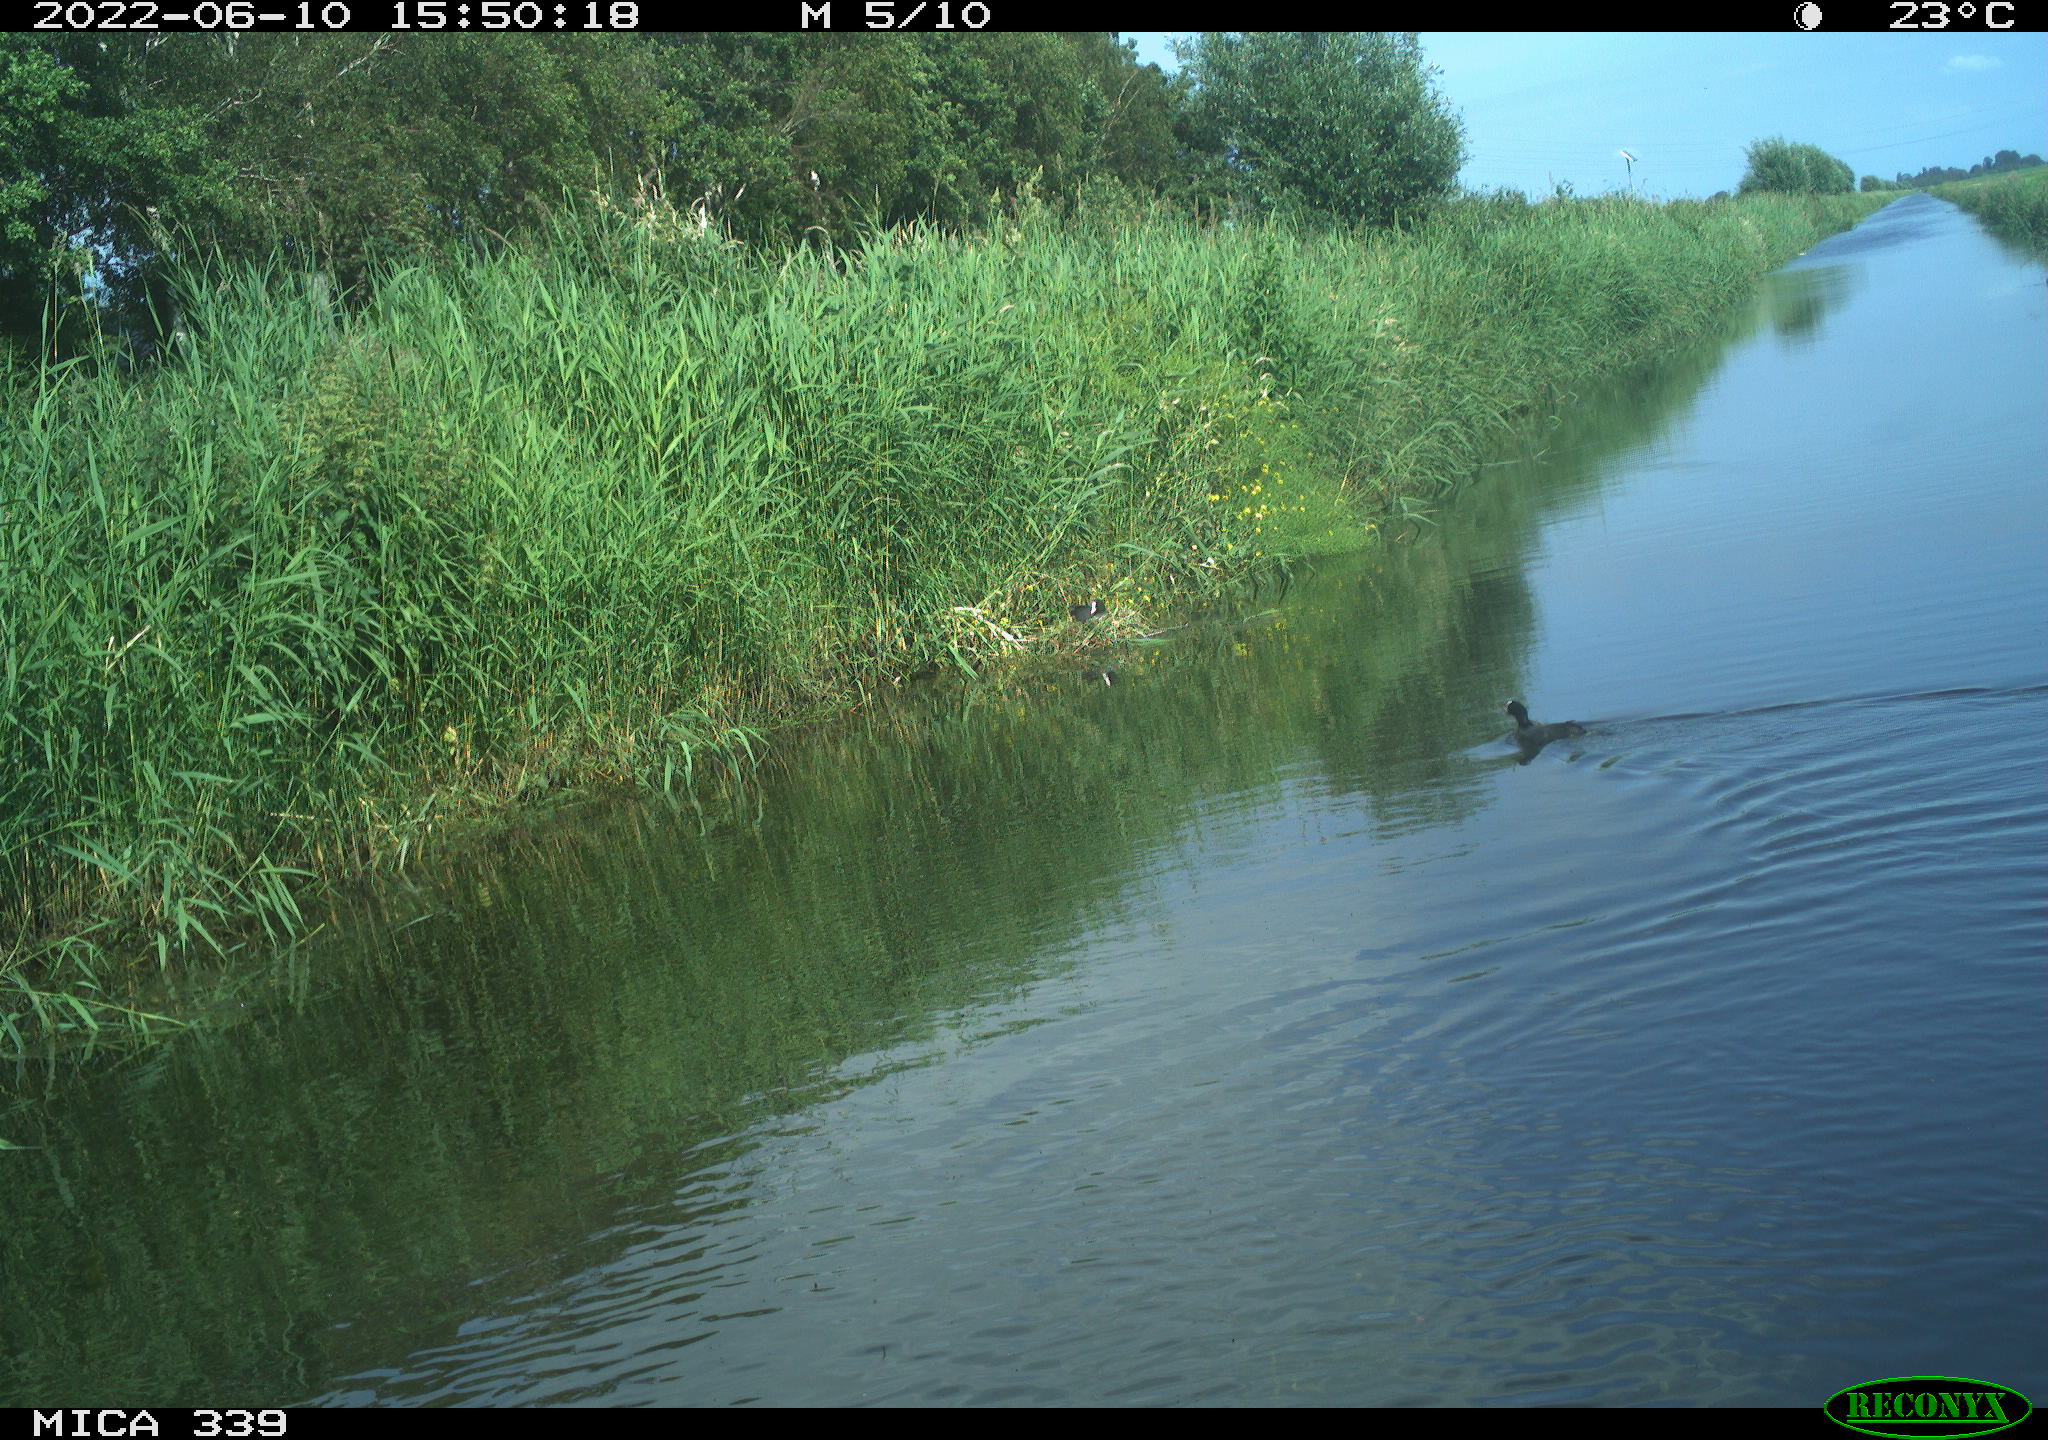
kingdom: Animalia
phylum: Chordata
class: Aves
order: Gruiformes
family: Rallidae
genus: Fulica
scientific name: Fulica atra
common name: Eurasian coot
